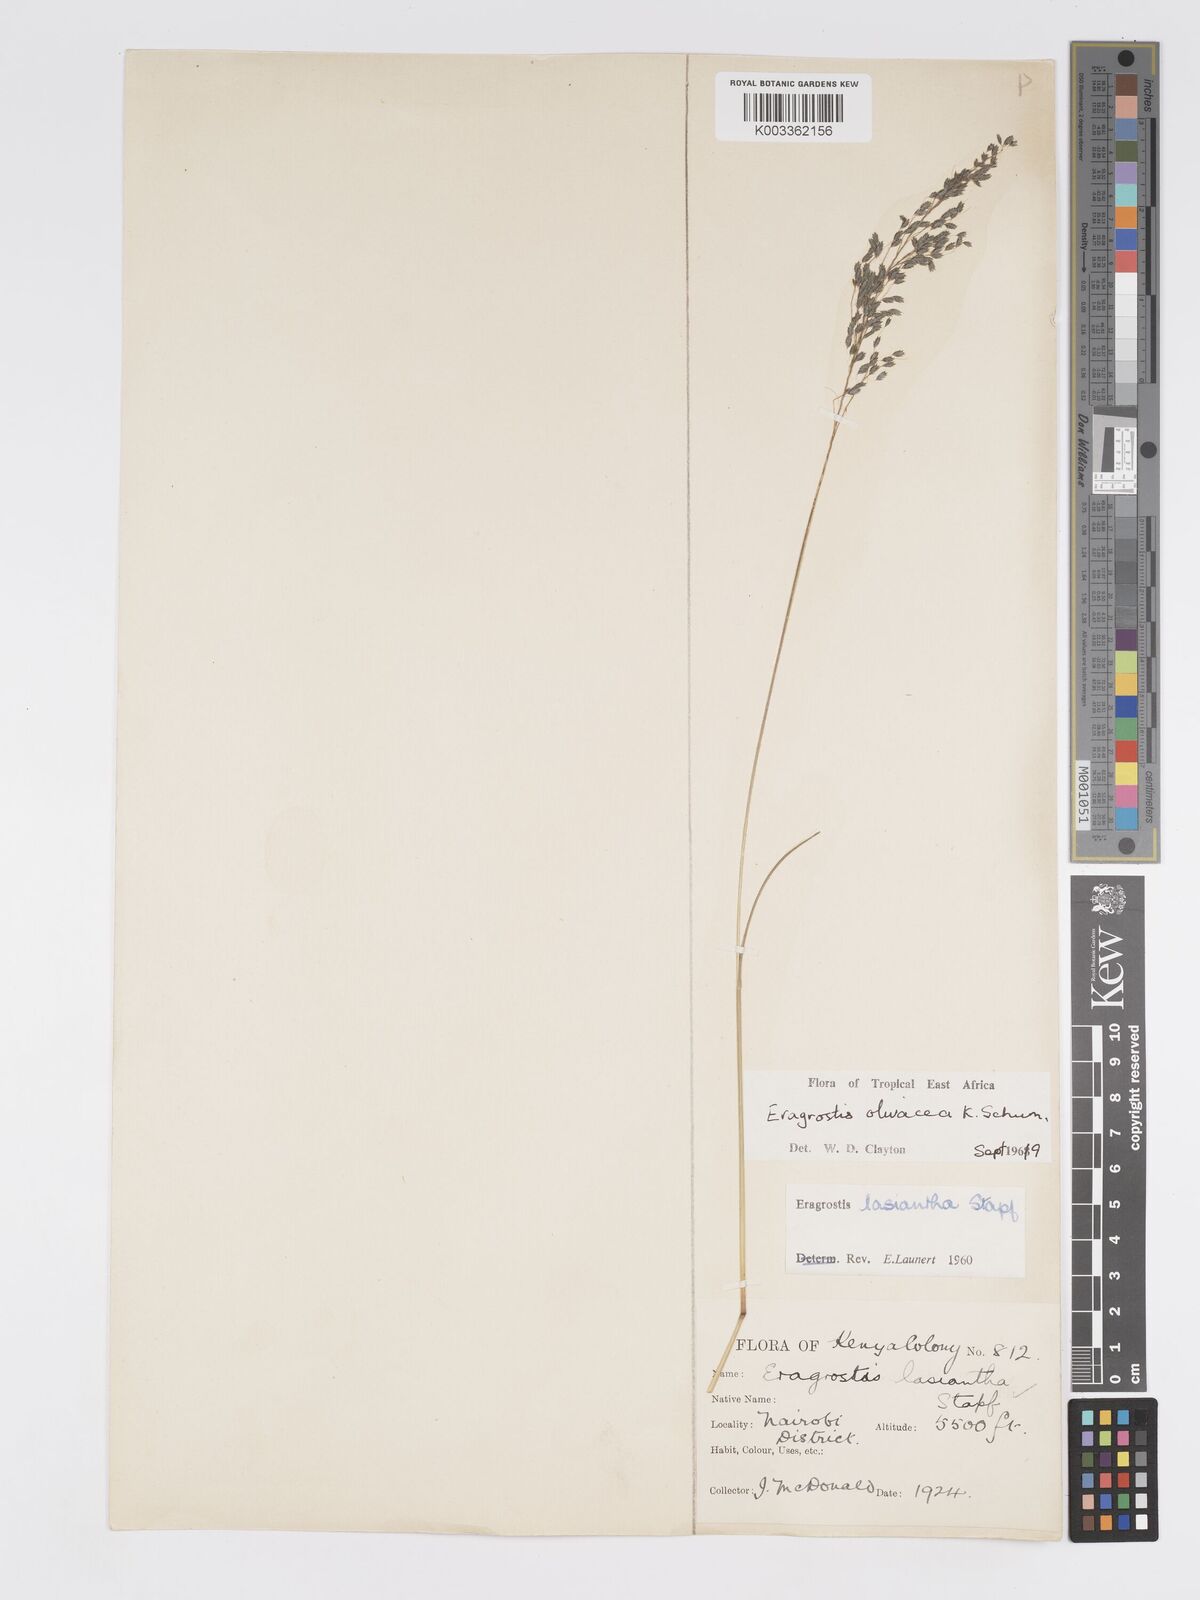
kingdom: Plantae
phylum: Tracheophyta
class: Liliopsida
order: Poales
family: Poaceae
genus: Eragrostis
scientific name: Eragrostis olivacea
